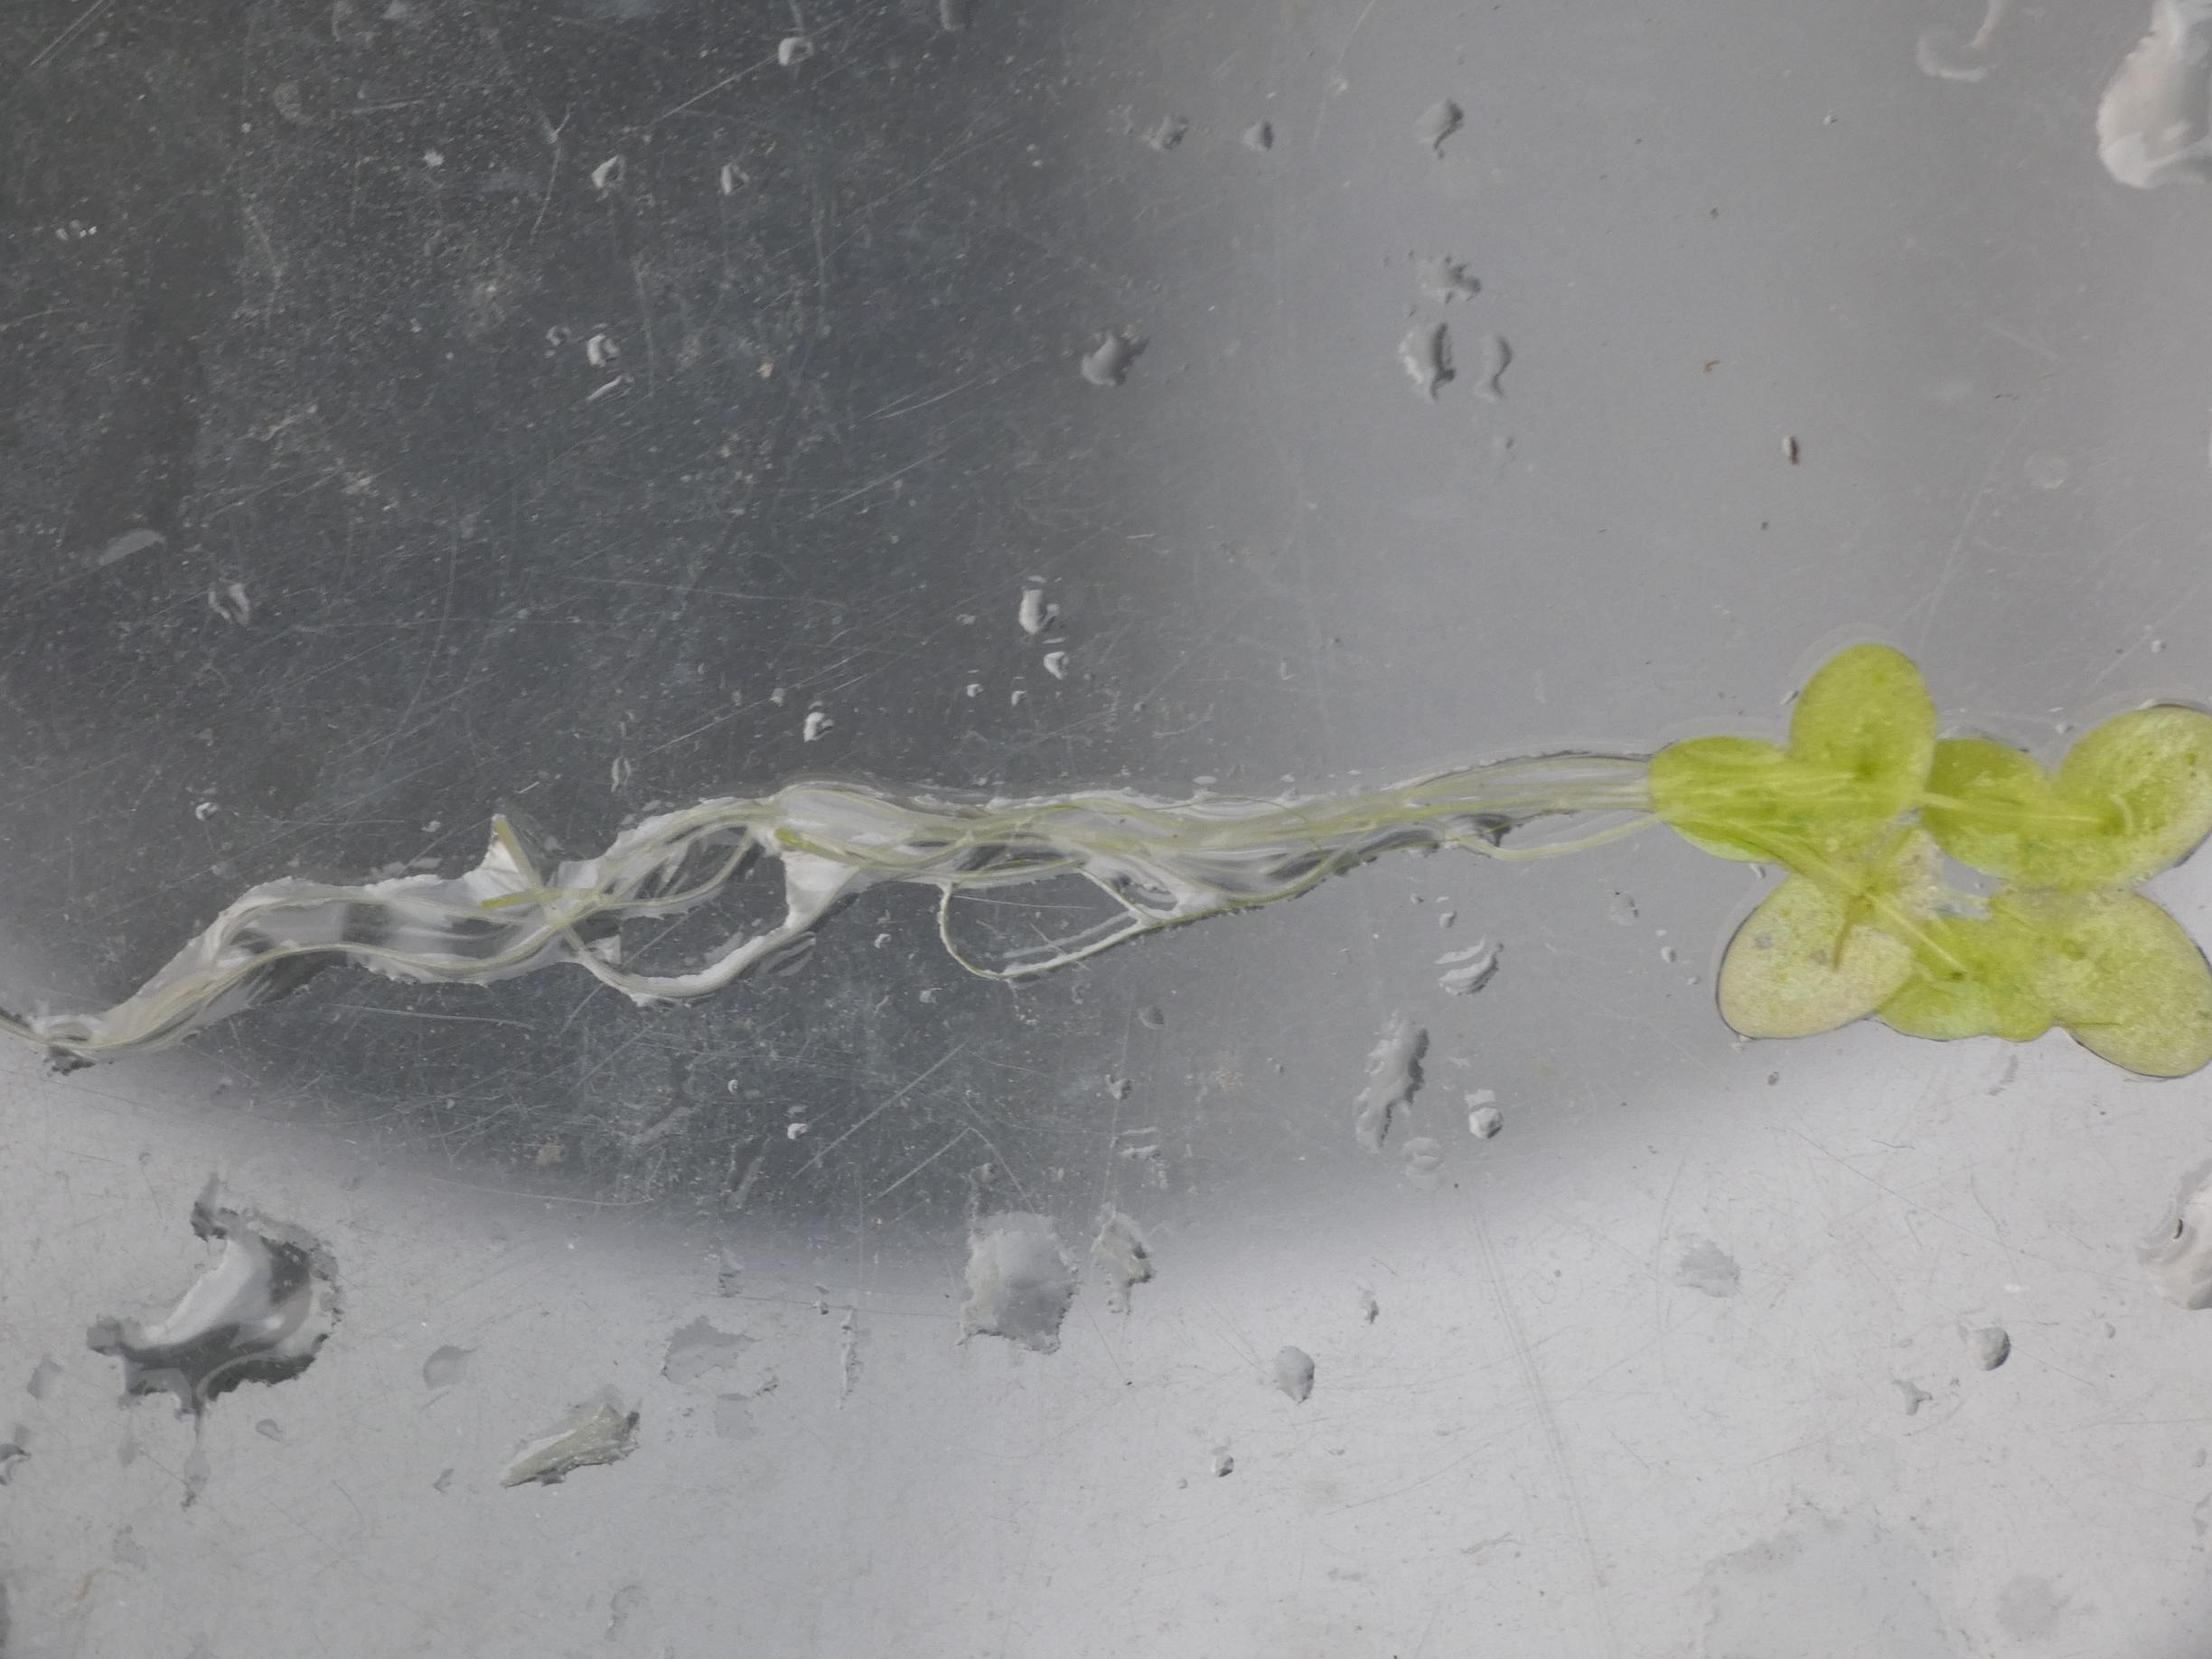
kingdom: Plantae
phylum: Tracheophyta
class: Liliopsida
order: Alismatales
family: Araceae
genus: Lemna
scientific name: Lemna minor
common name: Liden andemad
